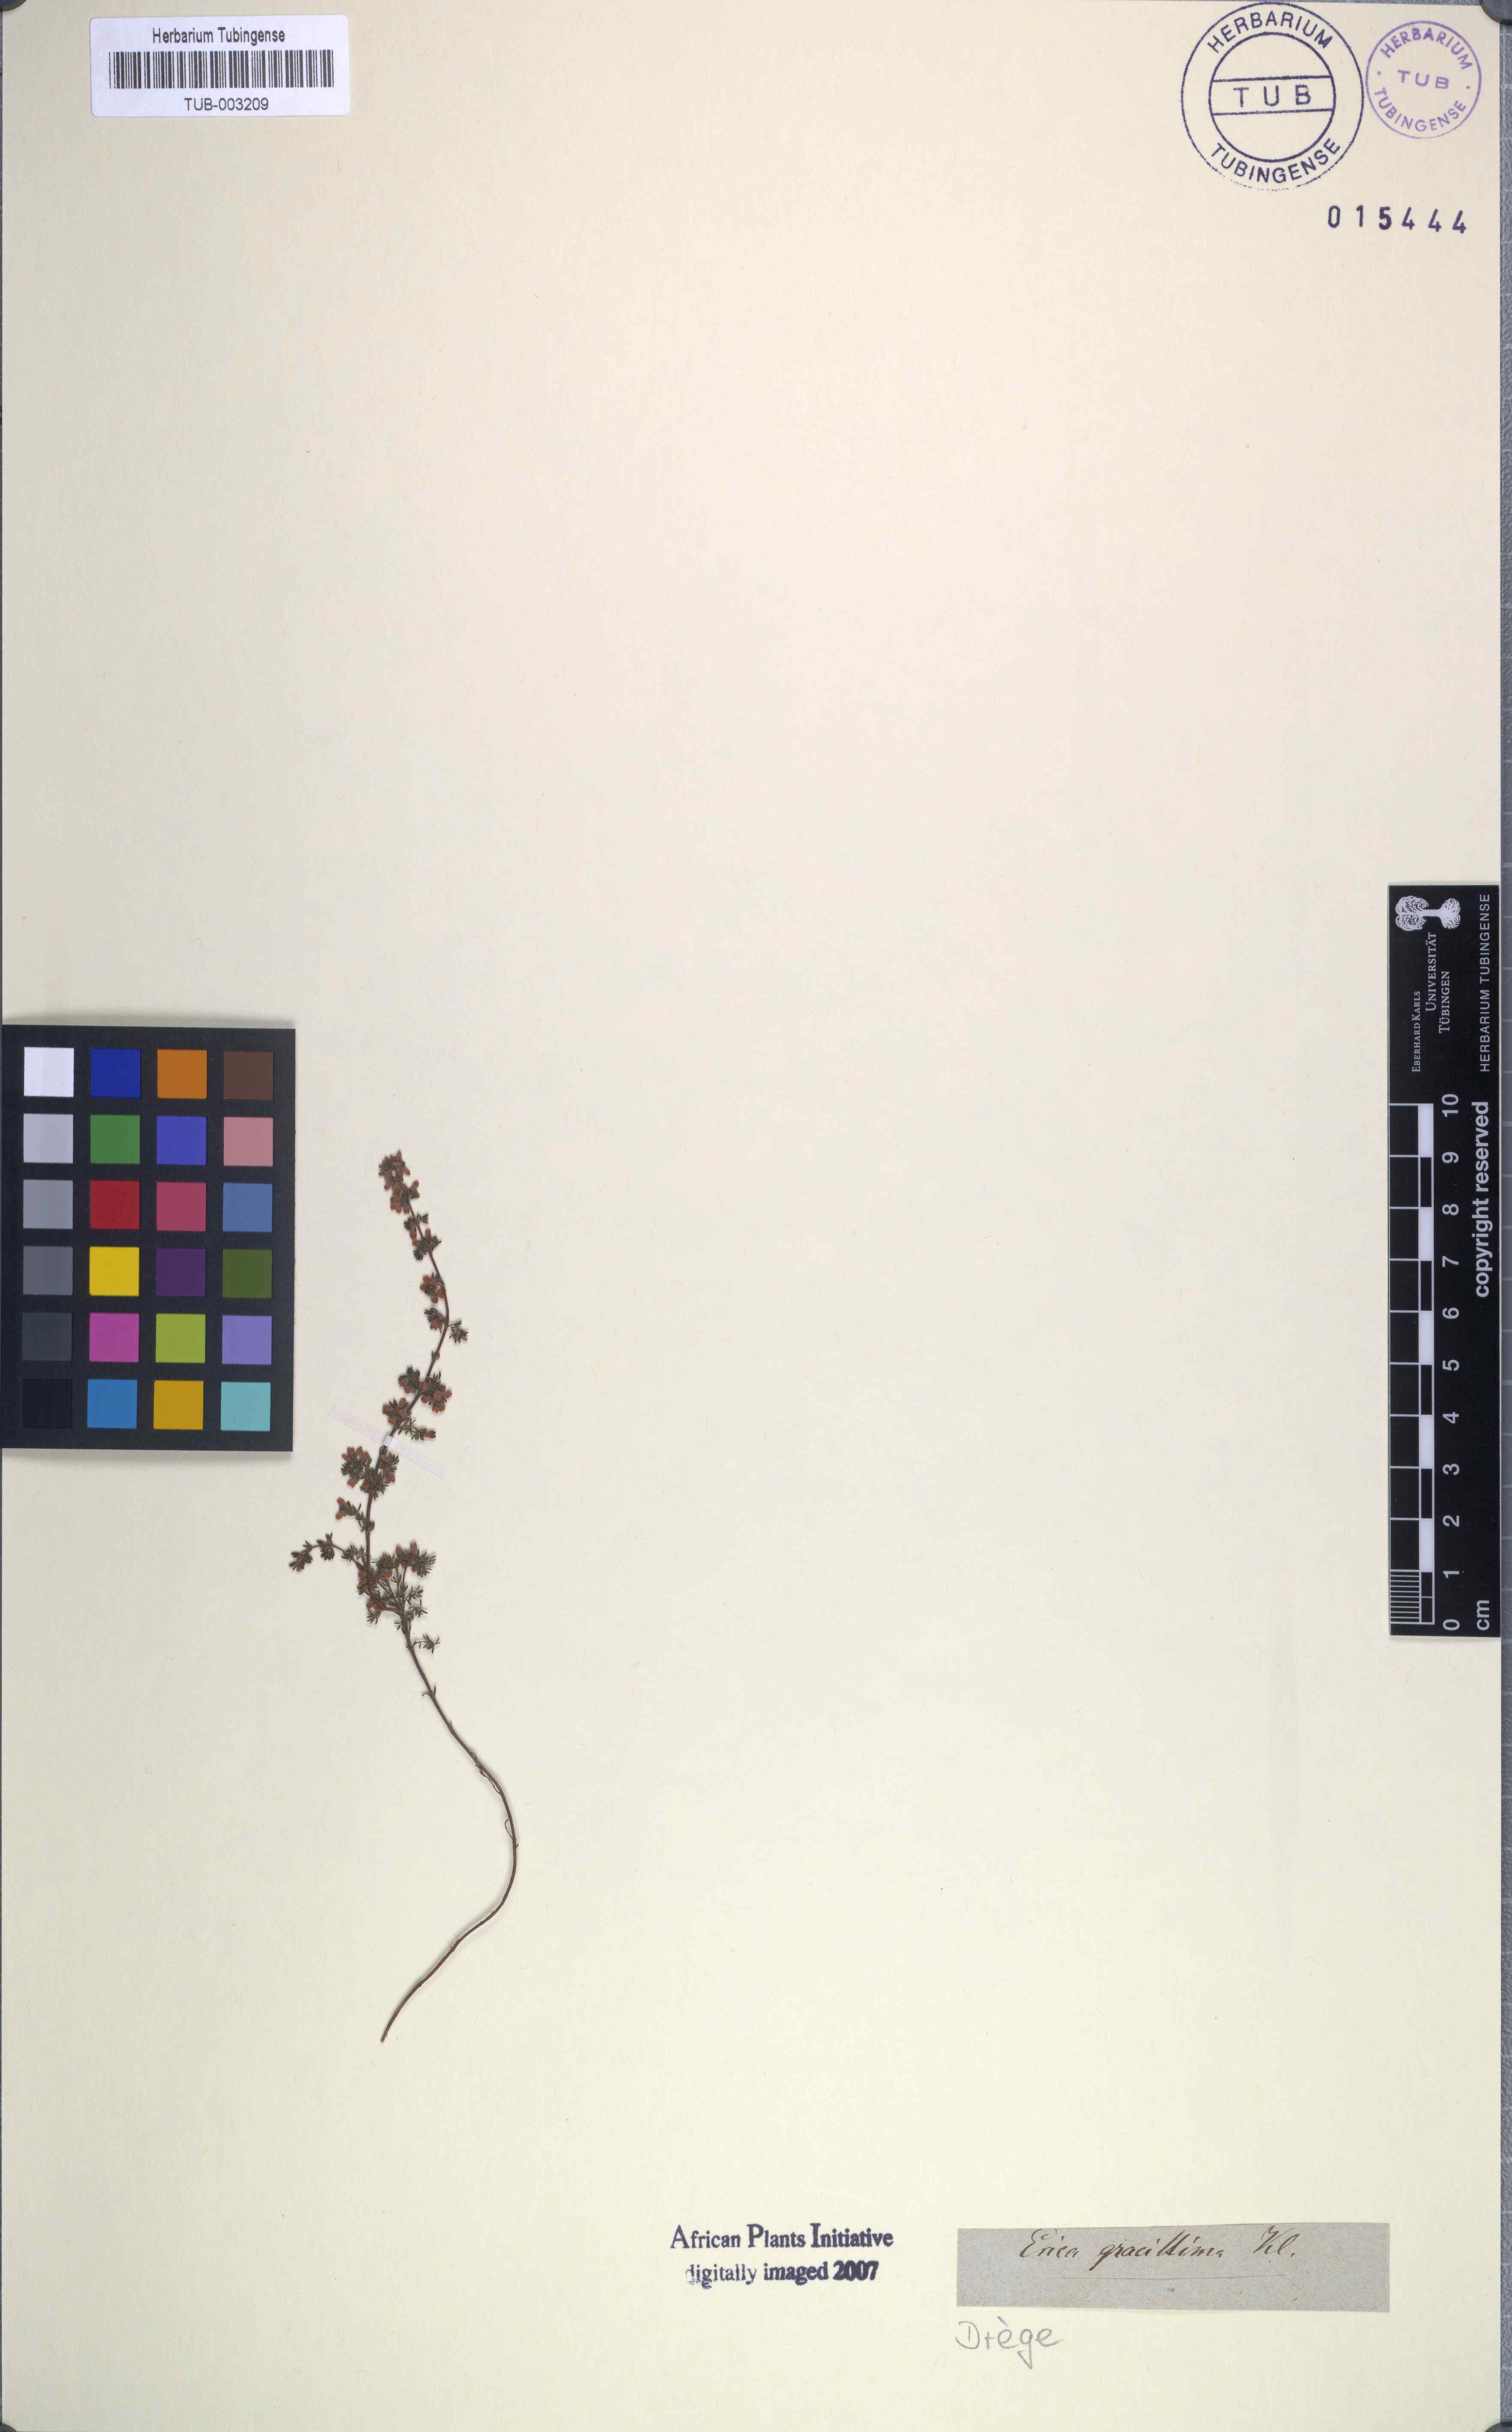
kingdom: Plantae
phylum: Tracheophyta
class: Magnoliopsida
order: Ericales
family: Ericaceae
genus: Erica
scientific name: Erica
